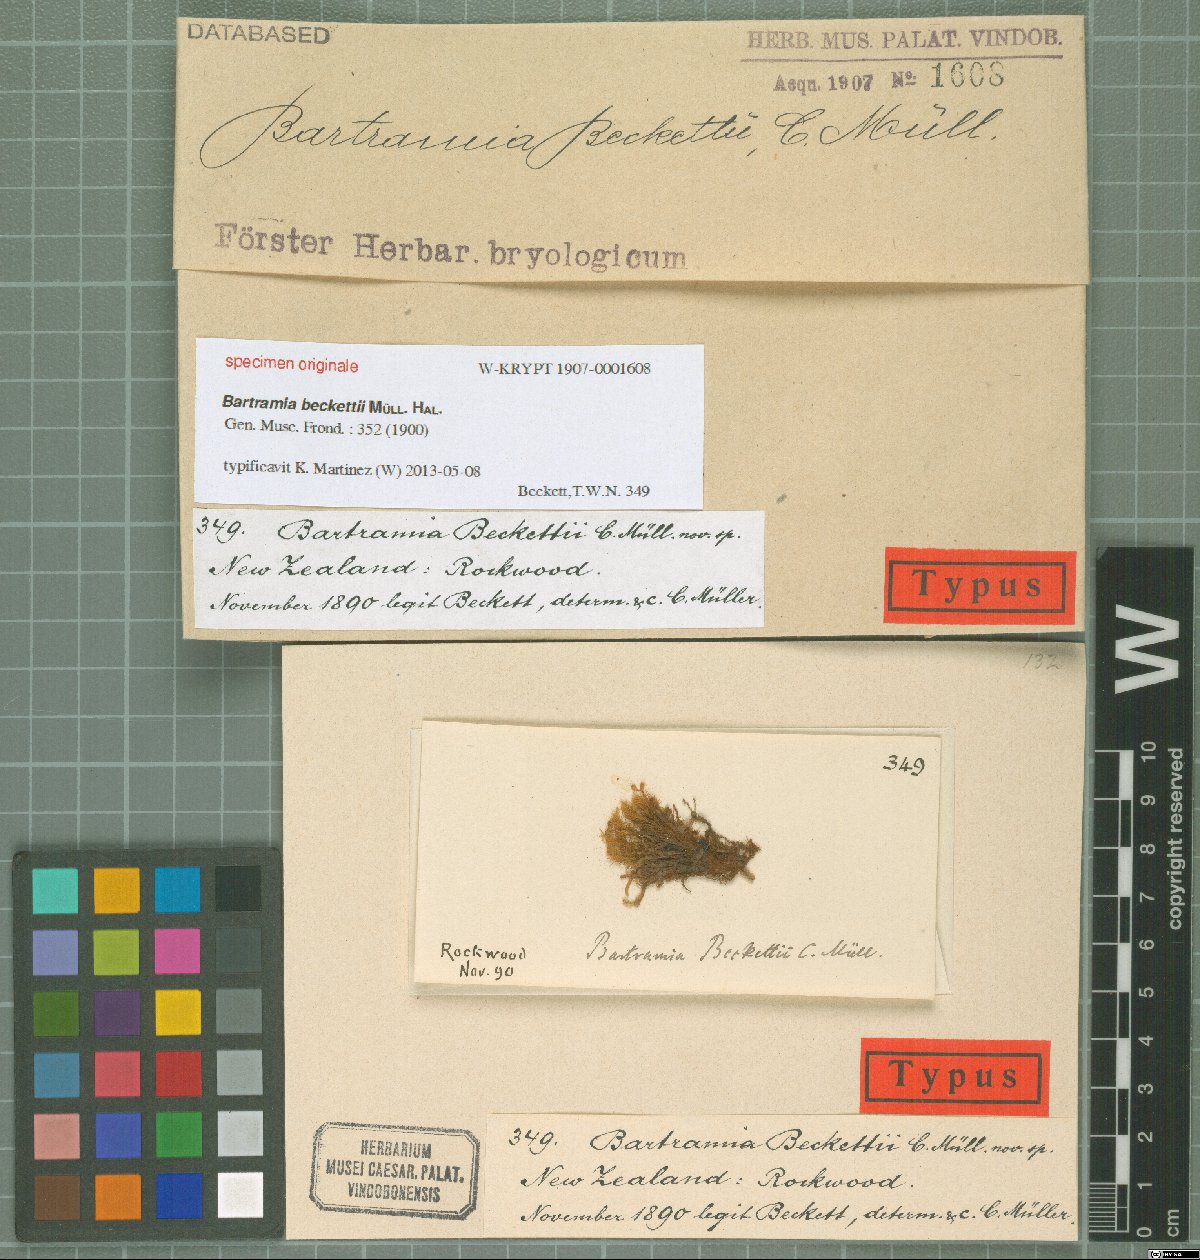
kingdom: Plantae
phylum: Bryophyta
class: Bryopsida
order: Bartramiales
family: Bartramiaceae
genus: Bartramia
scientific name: Bartramia
